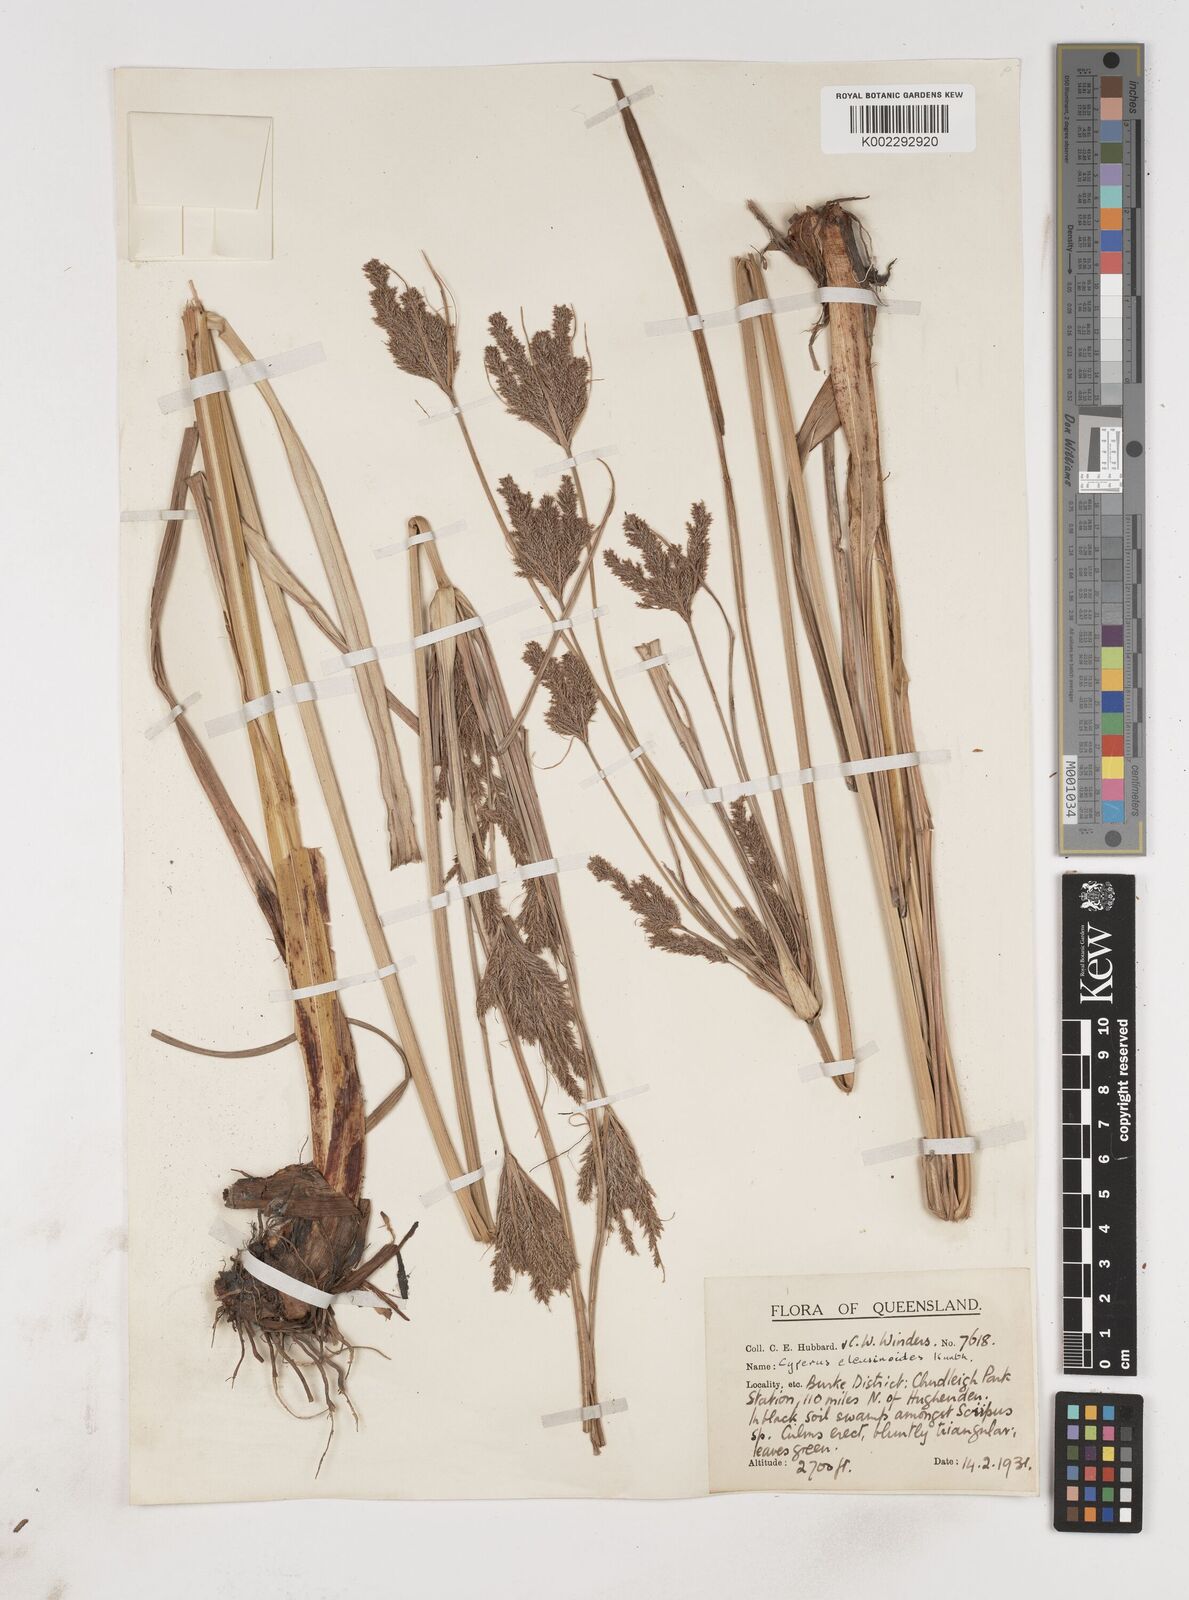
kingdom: Plantae
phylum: Tracheophyta
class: Liliopsida
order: Poales
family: Cyperaceae
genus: Cyperus
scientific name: Cyperus nutans
